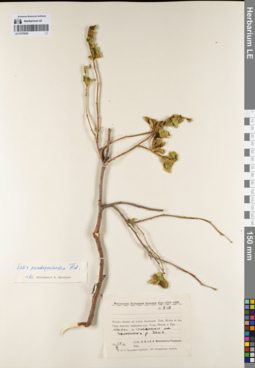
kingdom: Plantae
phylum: Tracheophyta
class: Magnoliopsida
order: Malpighiales
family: Salicaceae
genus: Salix
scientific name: Salix pseudopentandra
